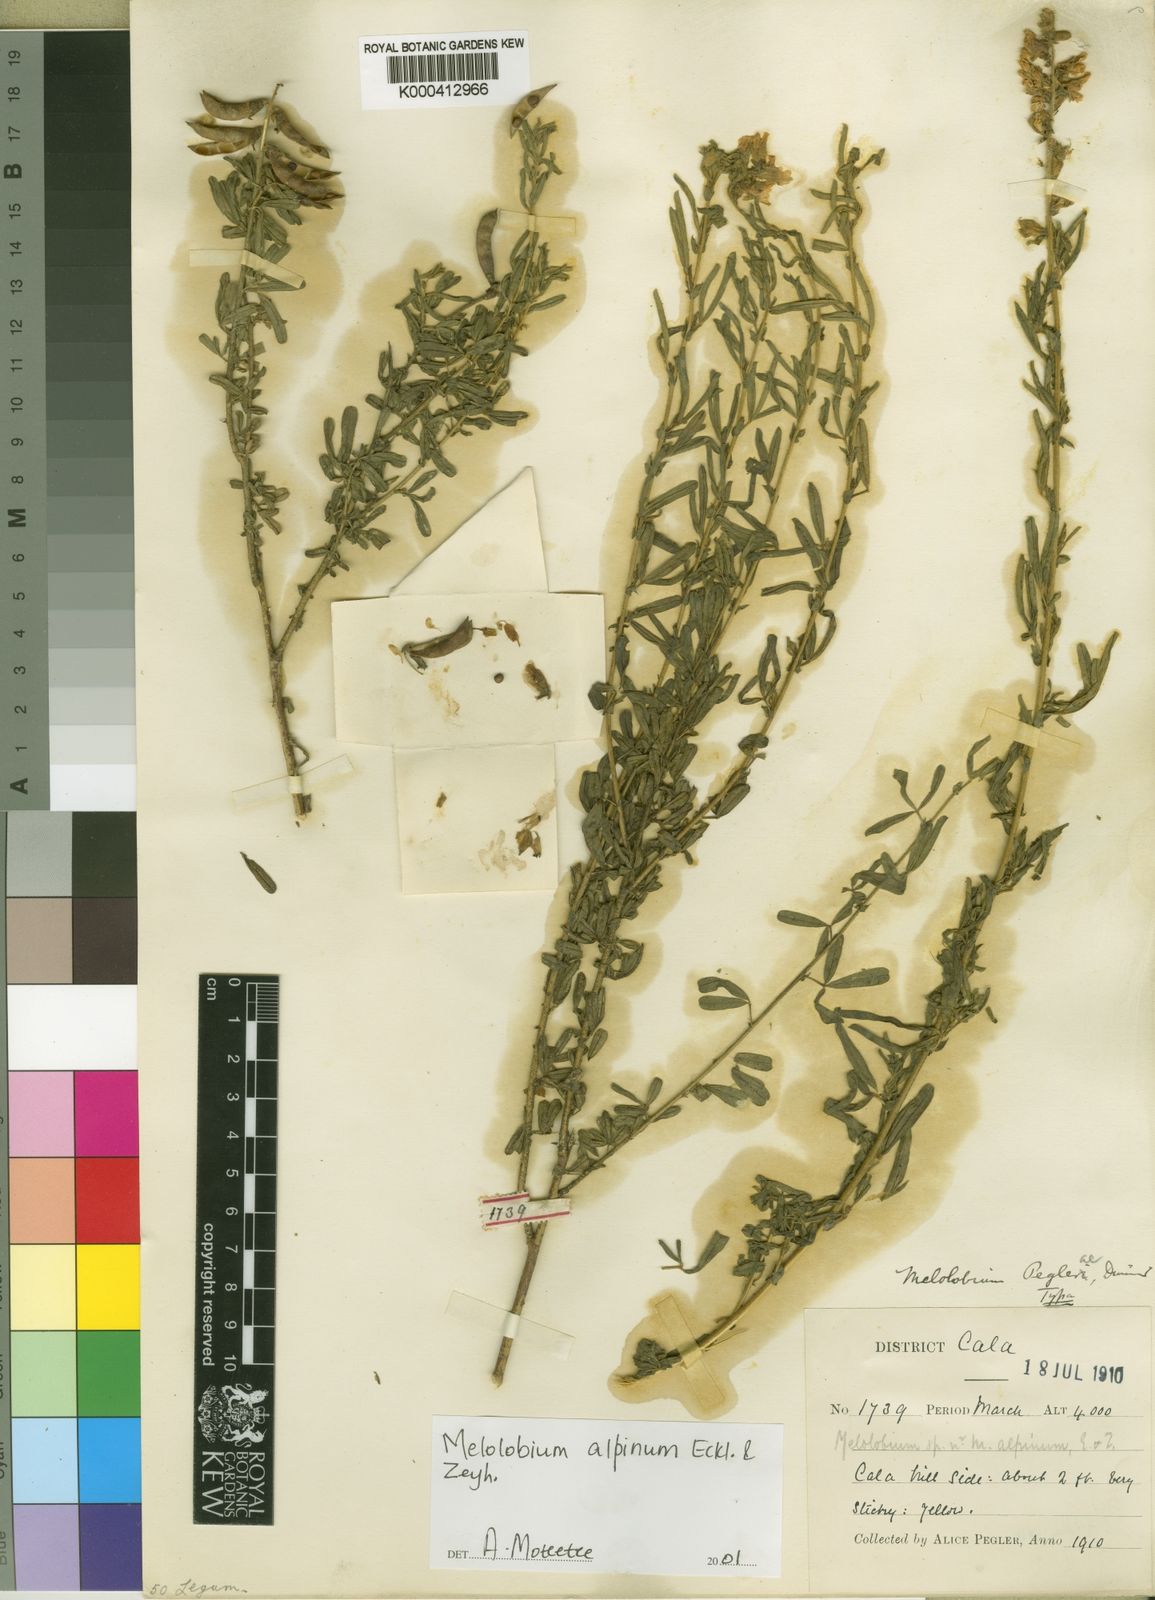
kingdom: Plantae
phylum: Tracheophyta
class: Magnoliopsida
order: Fabales
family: Fabaceae
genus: Melolobium
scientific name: Melolobium alpinum
